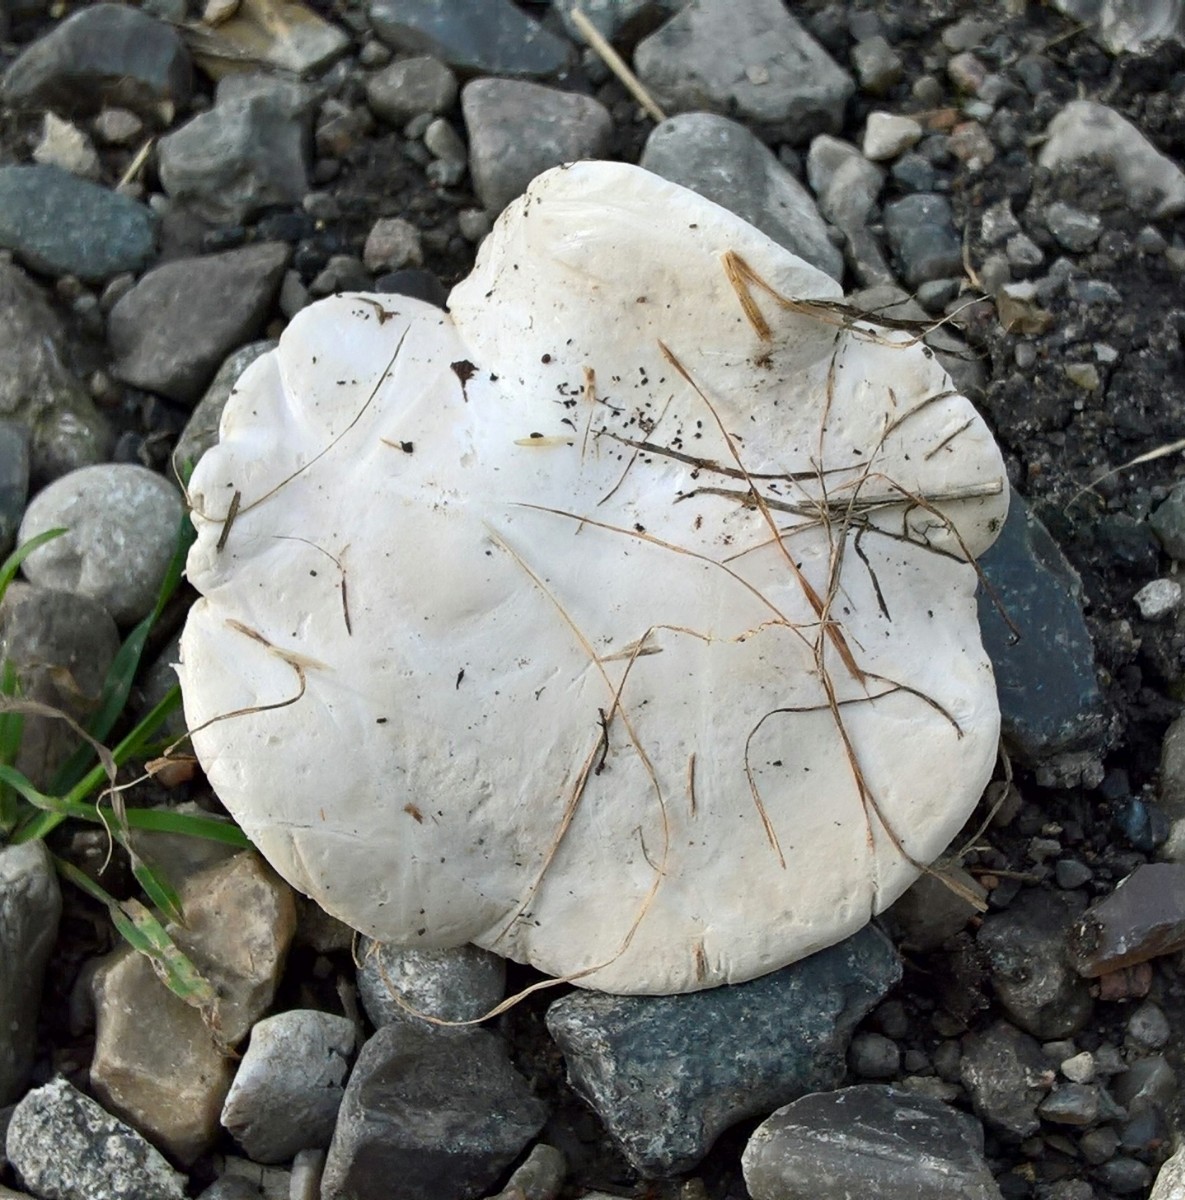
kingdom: Fungi
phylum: Basidiomycota
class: Agaricomycetes
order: Agaricales
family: Entolomataceae
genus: Clitopilus
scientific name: Clitopilus prunulus
